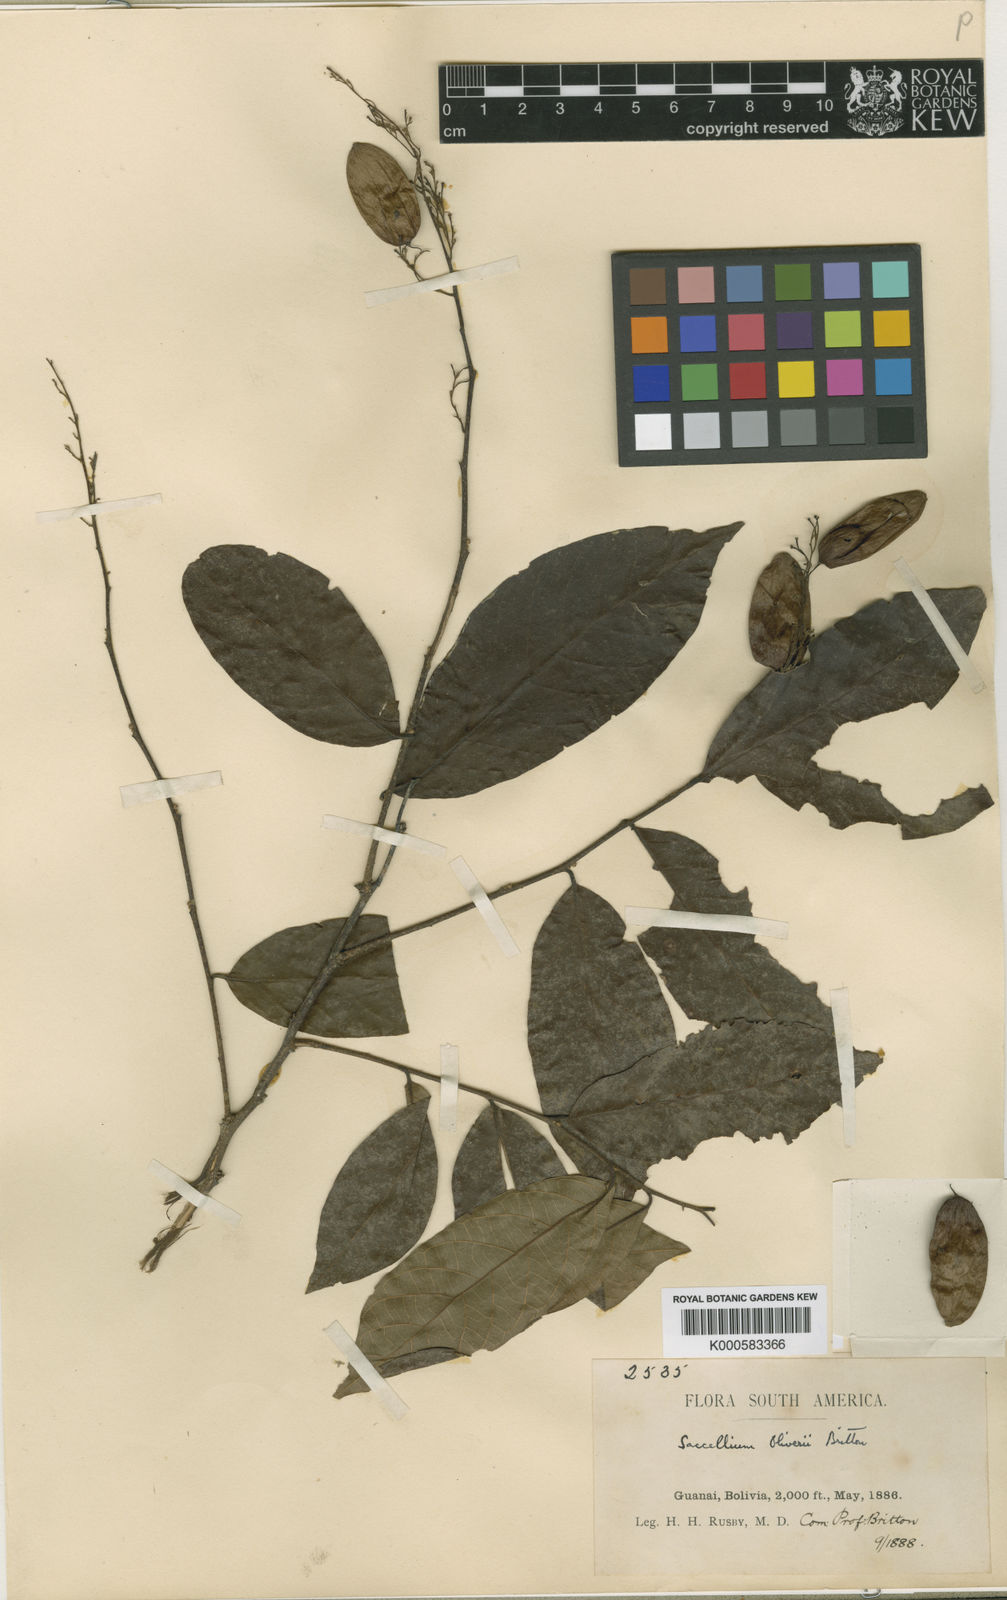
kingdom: Plantae
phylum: Tracheophyta
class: Magnoliopsida
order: Boraginales
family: Cordiaceae
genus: Cordia
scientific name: Cordia
